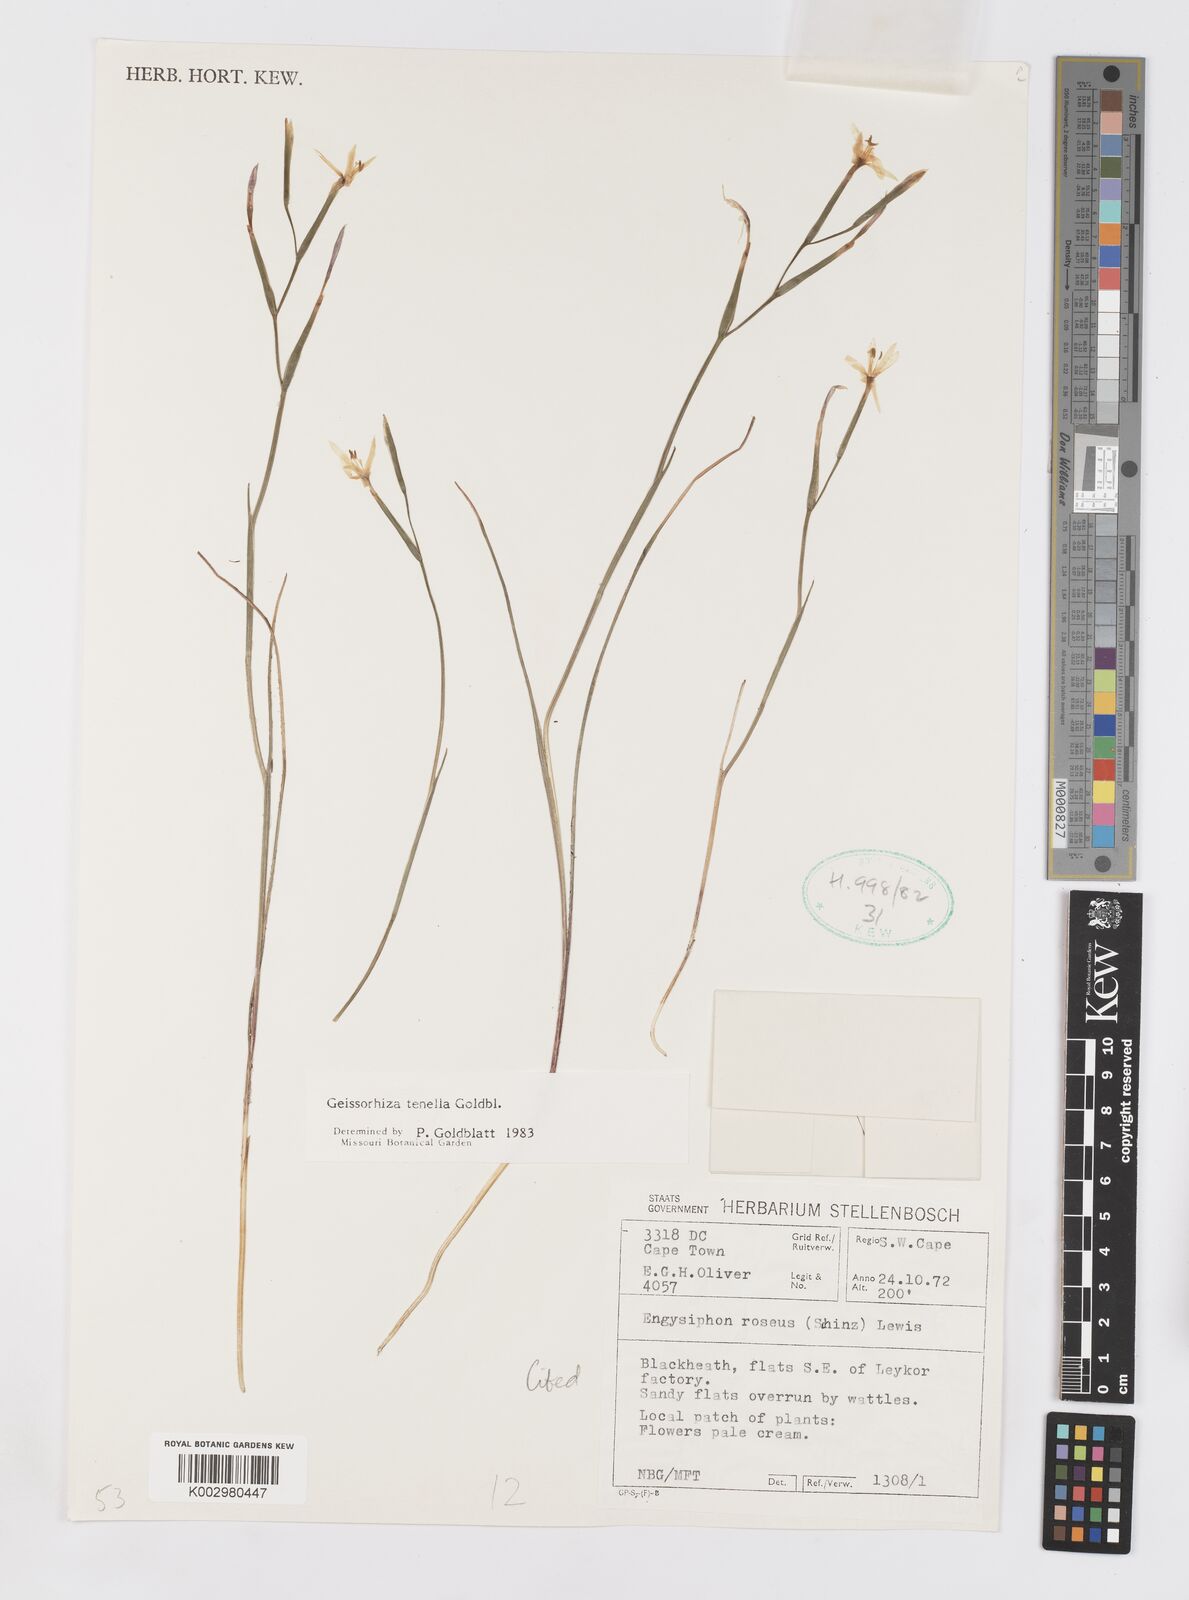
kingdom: Plantae
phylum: Tracheophyta
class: Liliopsida
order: Asparagales
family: Iridaceae
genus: Geissorhiza
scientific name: Geissorhiza tenella
